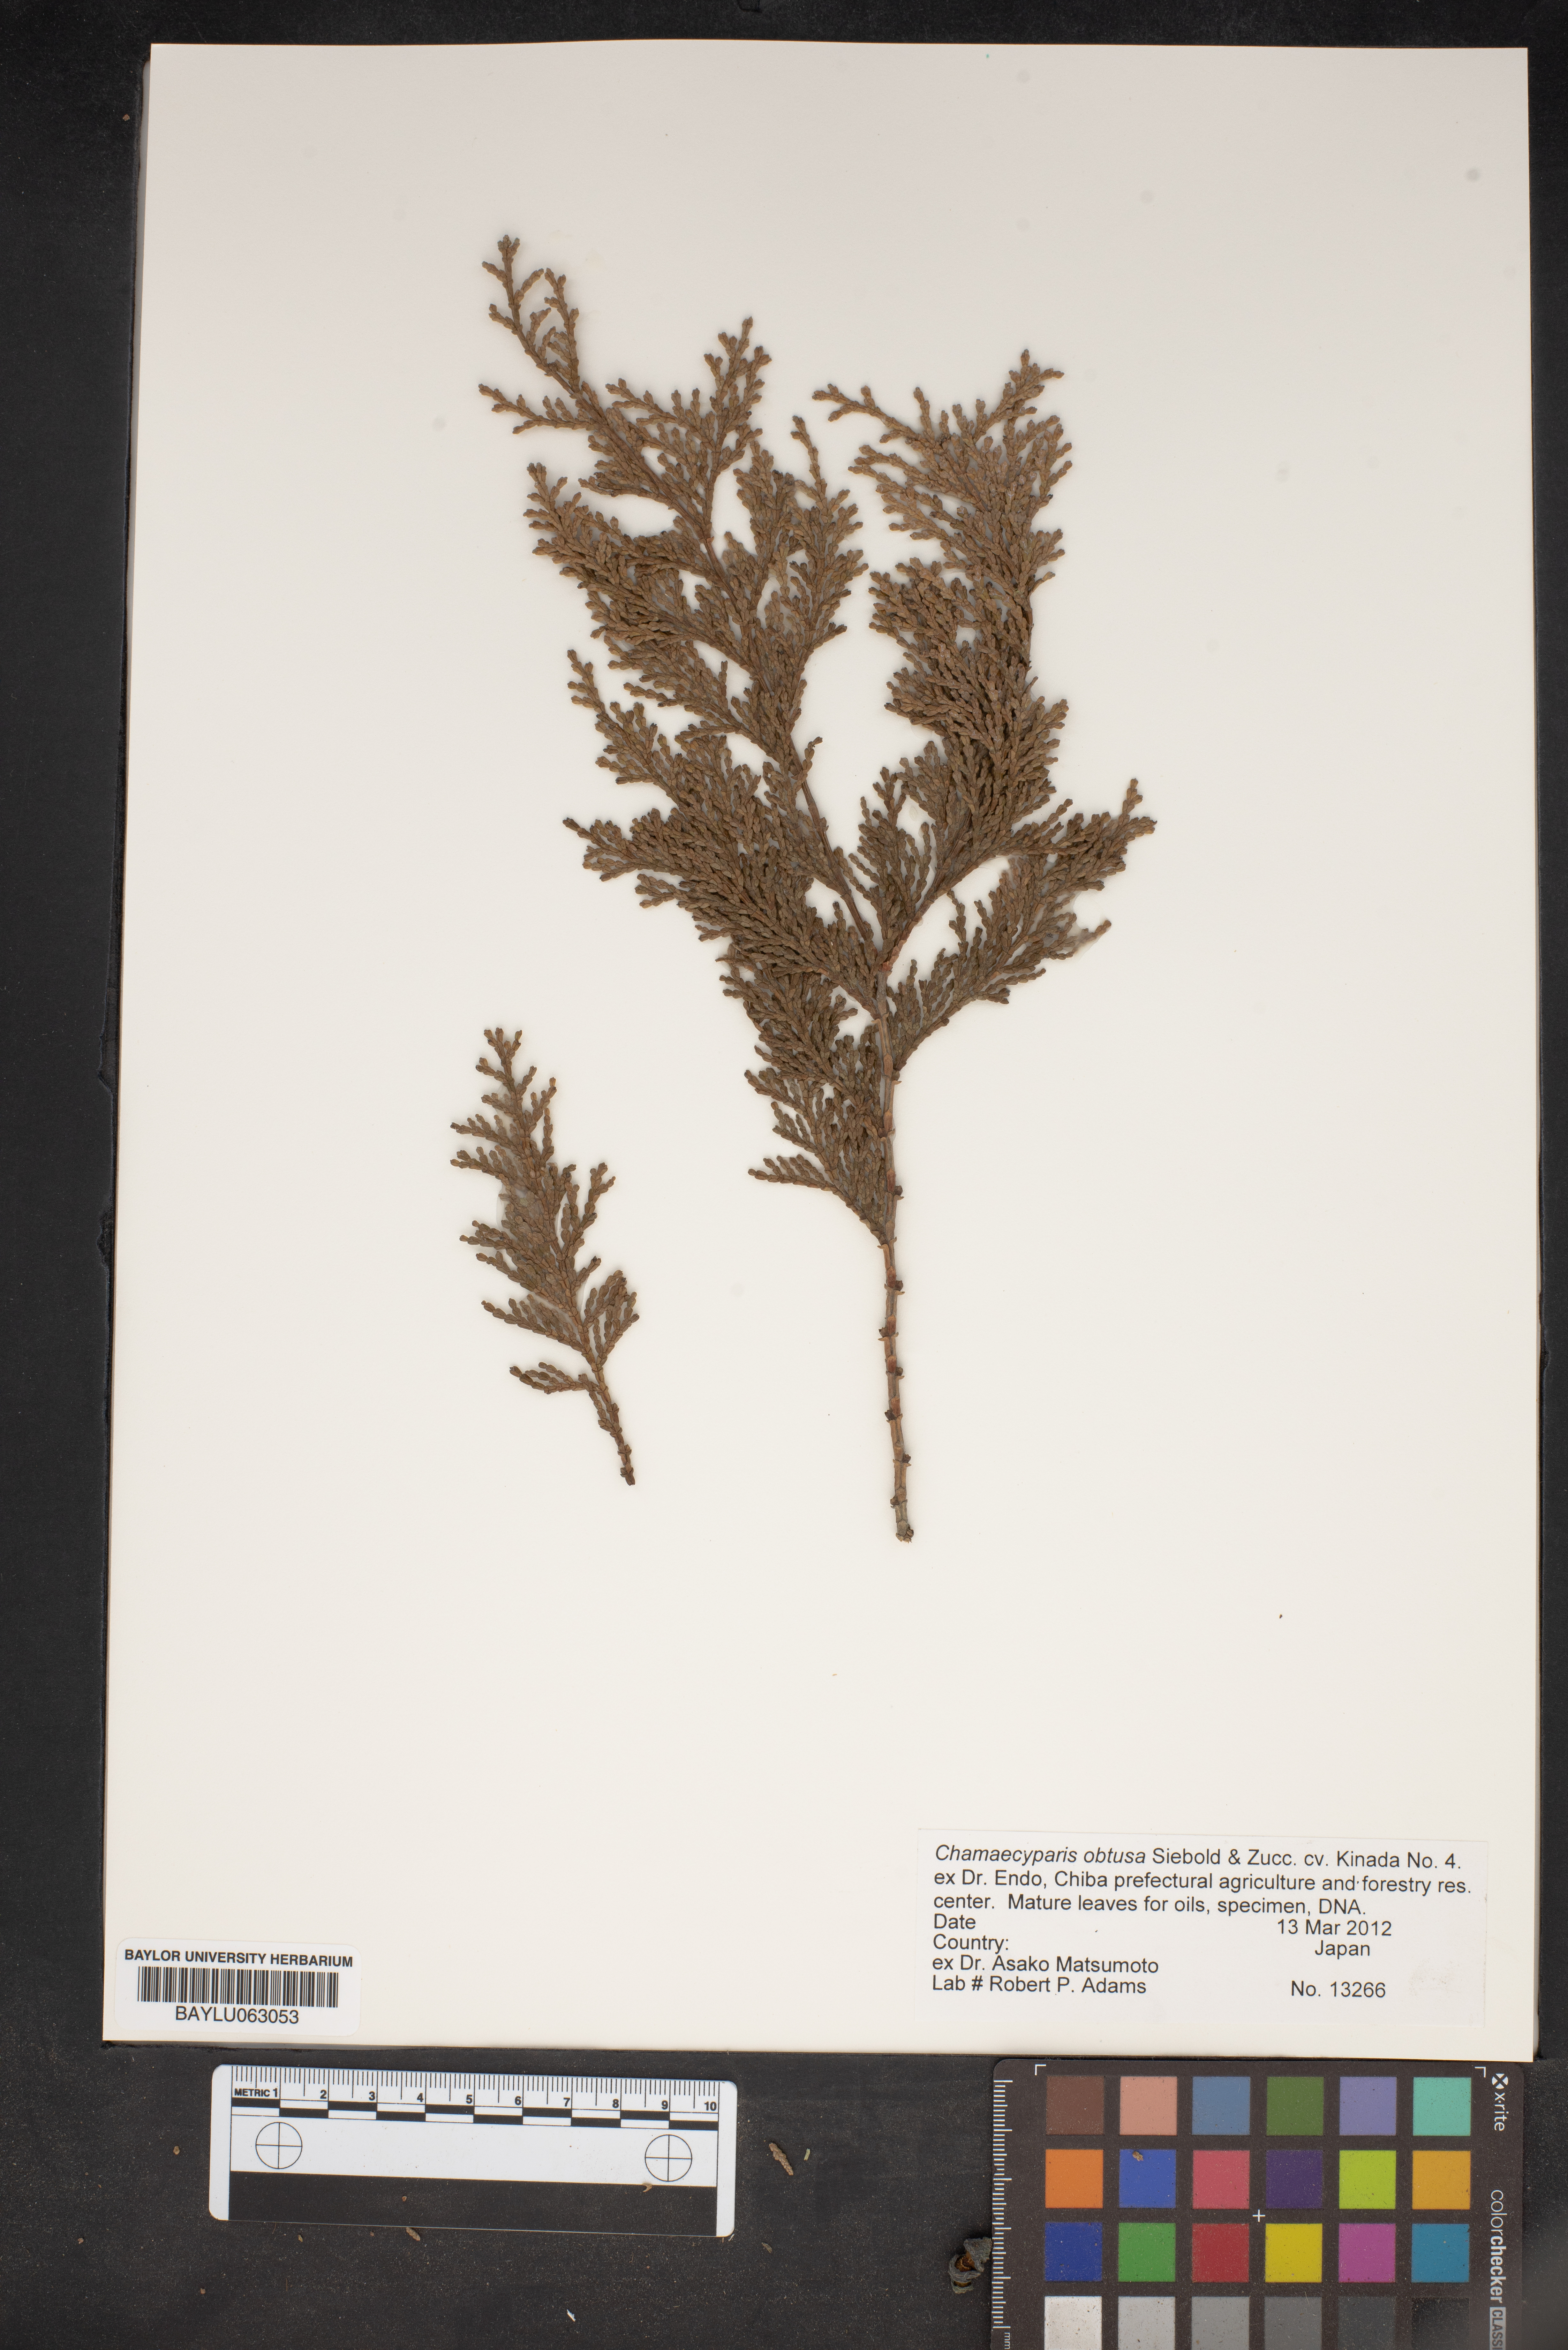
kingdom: Plantae
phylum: Tracheophyta
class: Pinopsida
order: Pinales
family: Cupressaceae
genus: Chamaecyparis
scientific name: Chamaecyparis obtusa
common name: Hinoki false cypress
